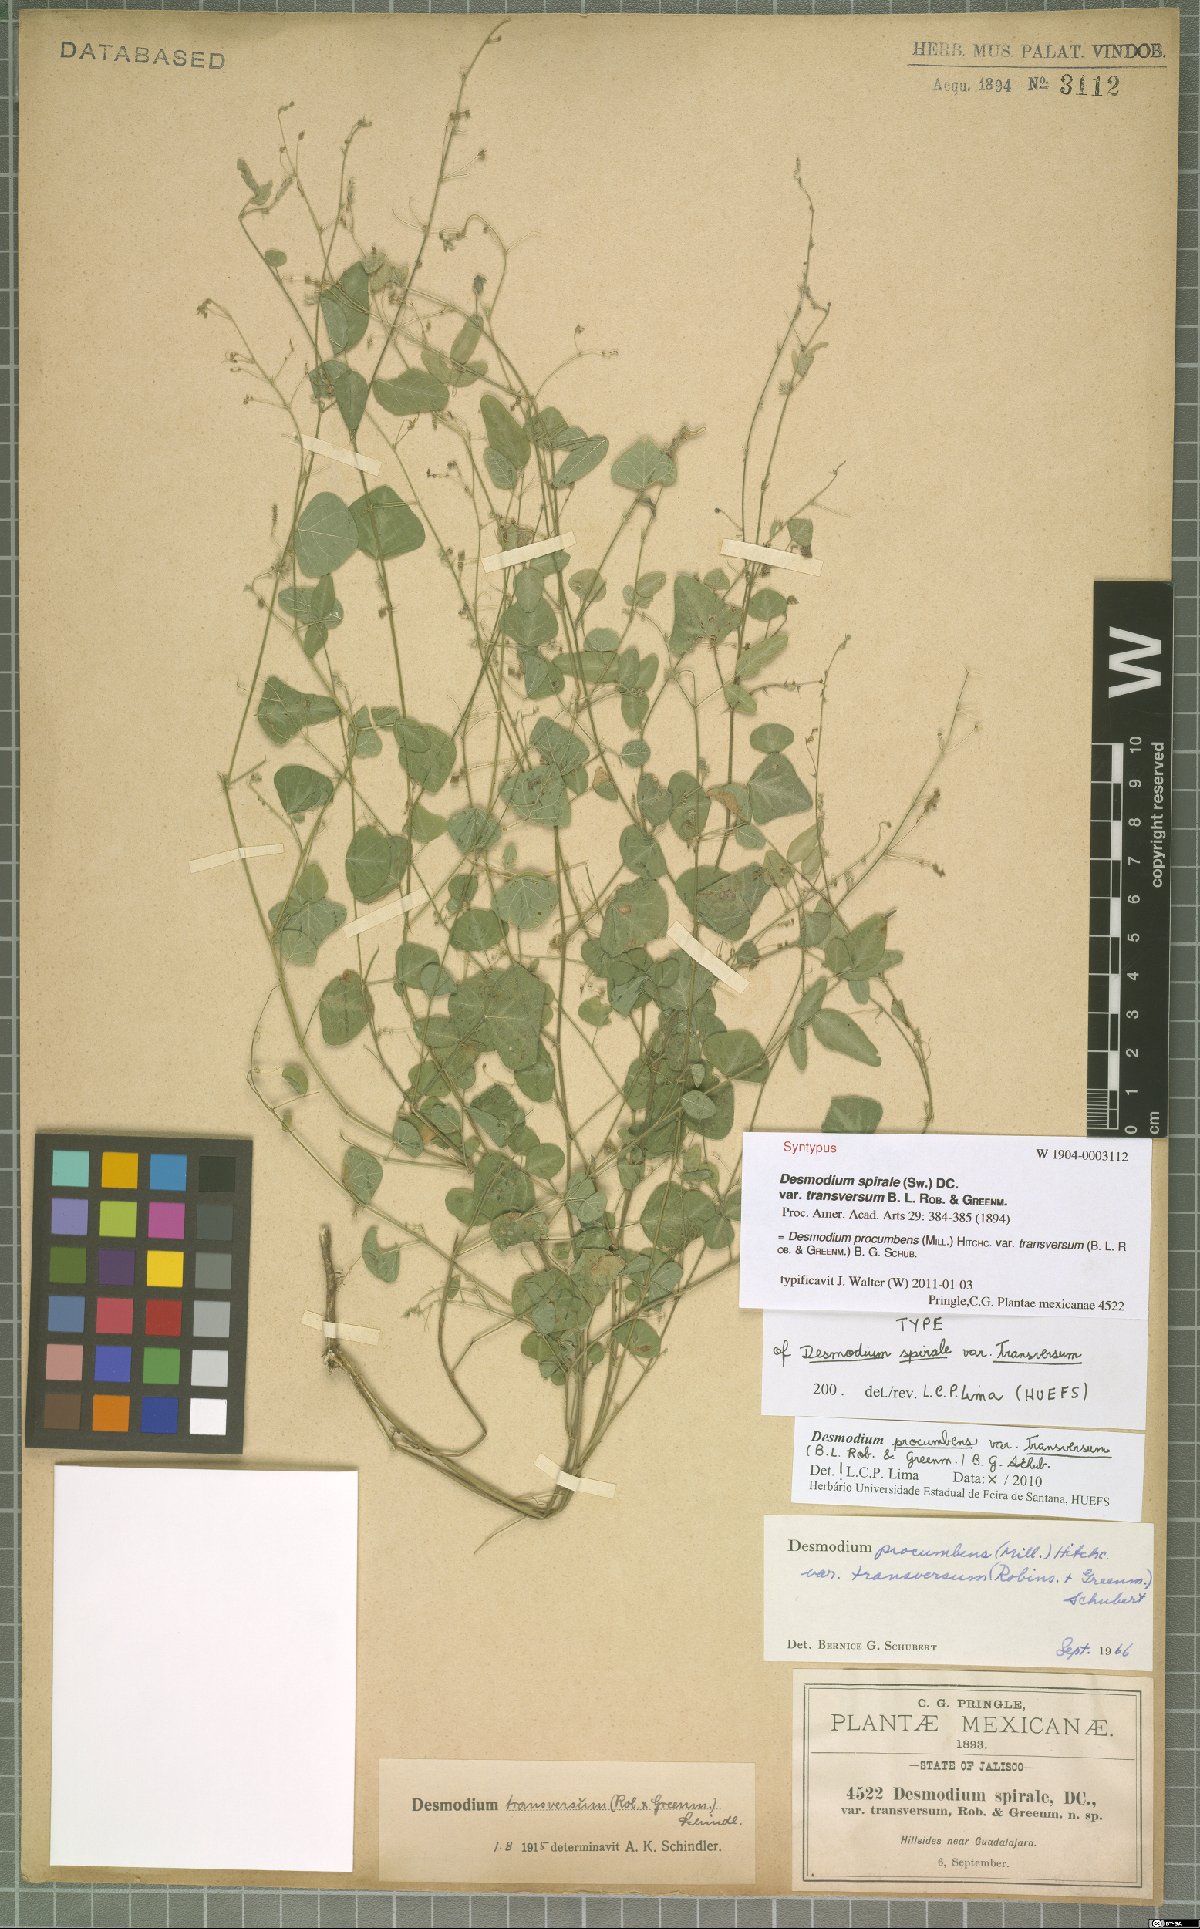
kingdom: Plantae
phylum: Tracheophyta
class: Magnoliopsida
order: Fabales
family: Fabaceae
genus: Desmodium
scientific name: Desmodium procumbens
